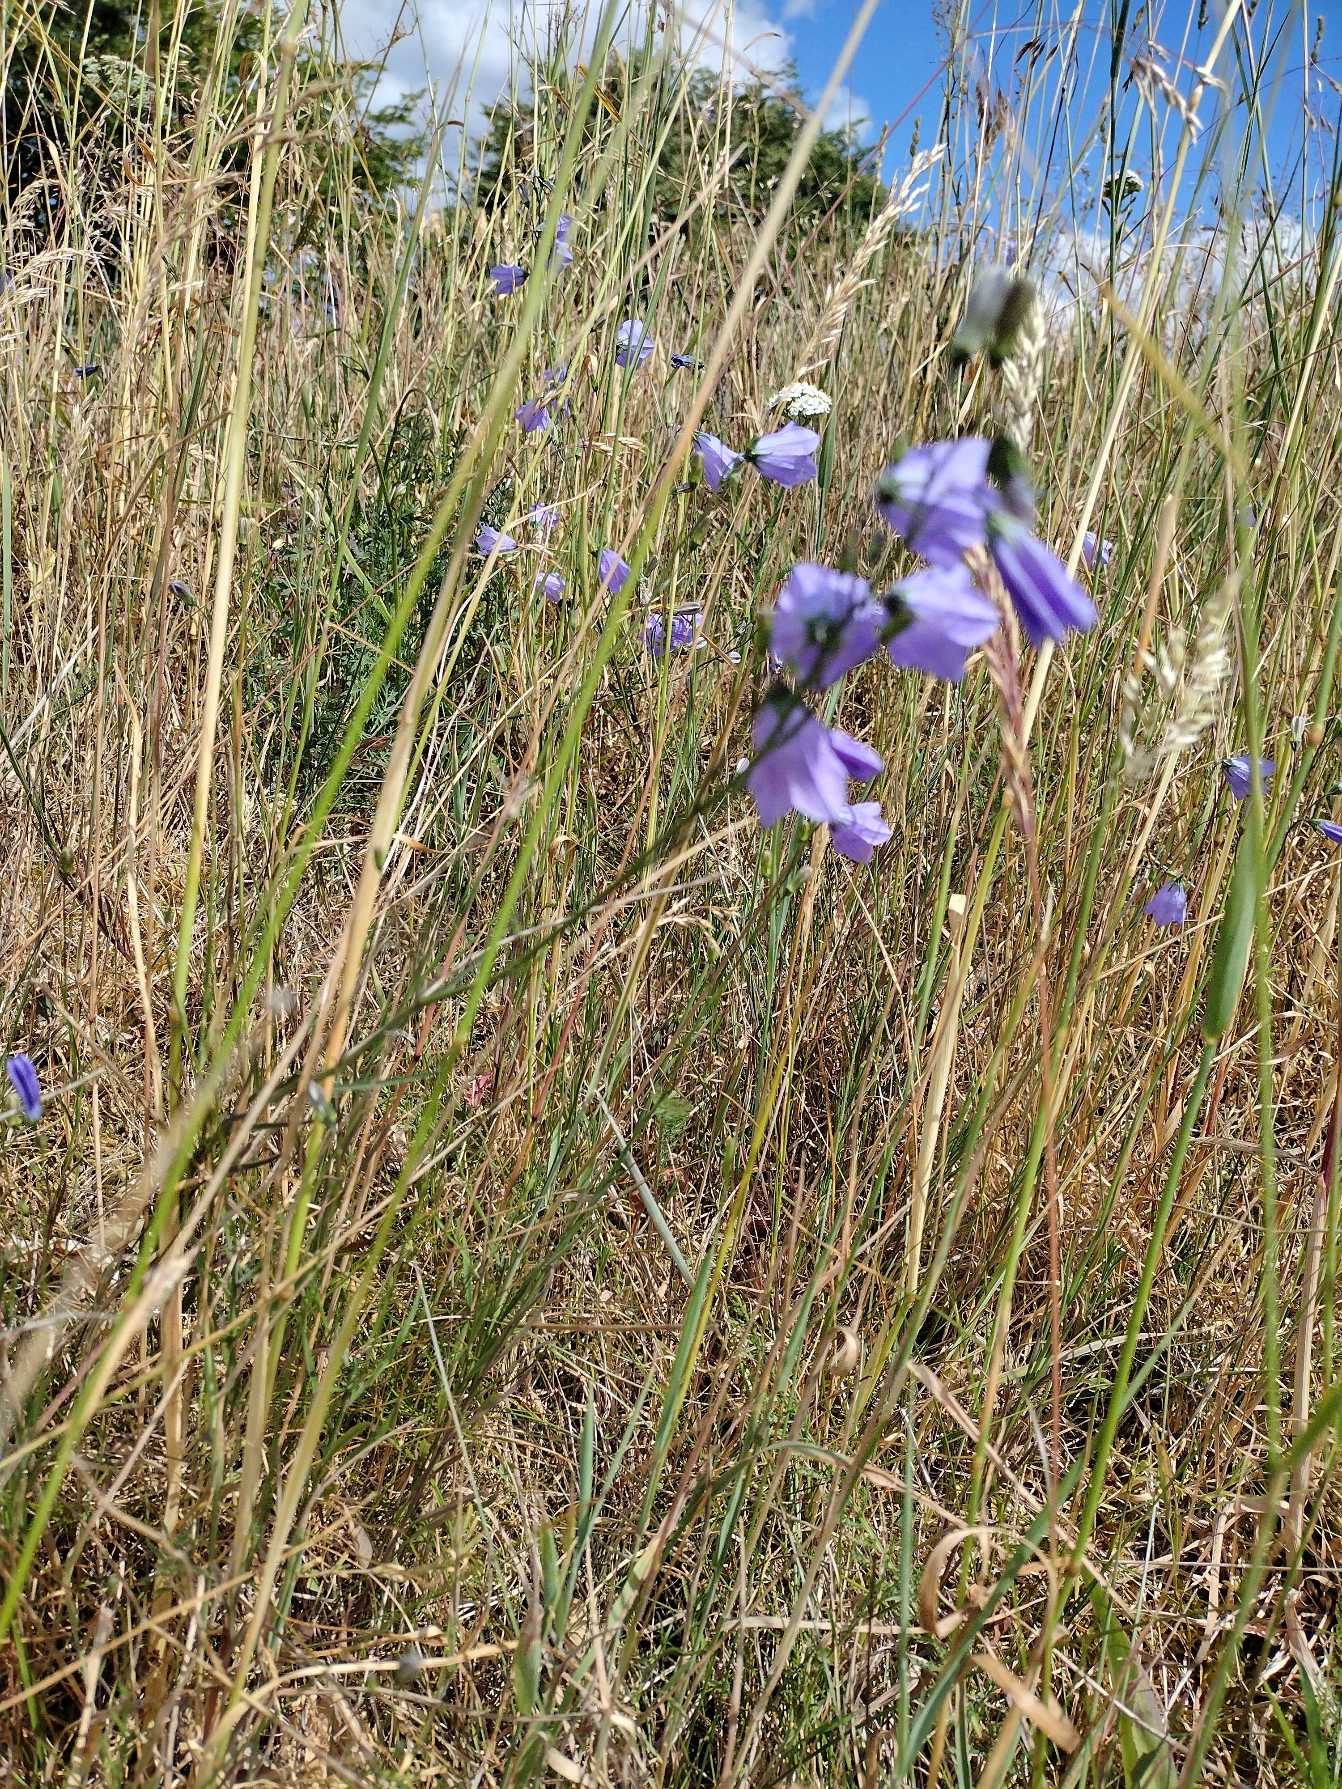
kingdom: Plantae
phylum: Tracheophyta
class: Magnoliopsida
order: Asterales
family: Campanulaceae
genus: Campanula
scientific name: Campanula rotundifolia
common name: Liden klokke
